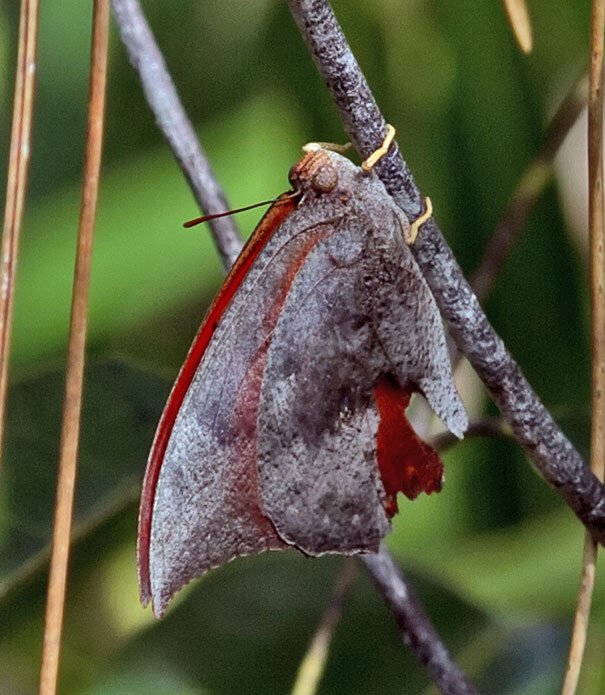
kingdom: Animalia
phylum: Arthropoda
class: Insecta
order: Lepidoptera
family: Nymphalidae
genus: Anaea
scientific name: Anaea troglodyta
